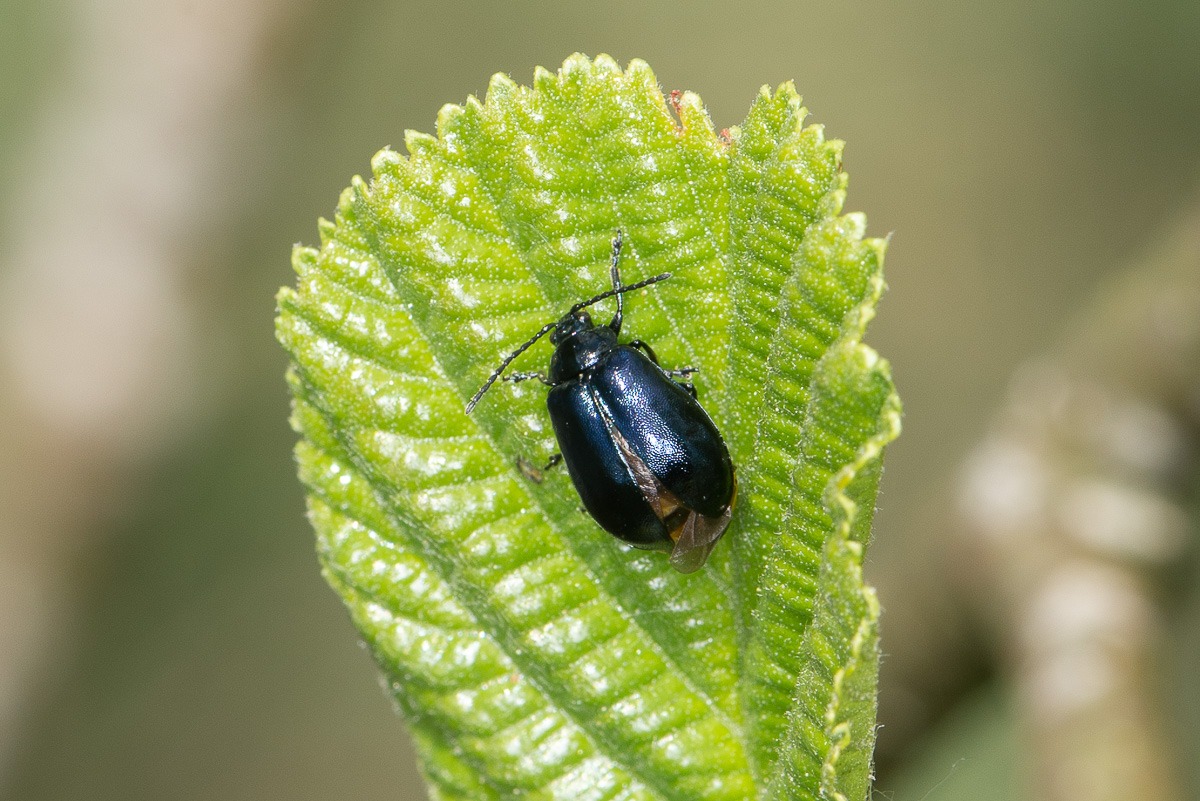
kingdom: Animalia
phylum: Arthropoda
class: Insecta
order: Coleoptera
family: Chrysomelidae
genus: Agelastica
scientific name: Agelastica alni
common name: Ellebladbille
